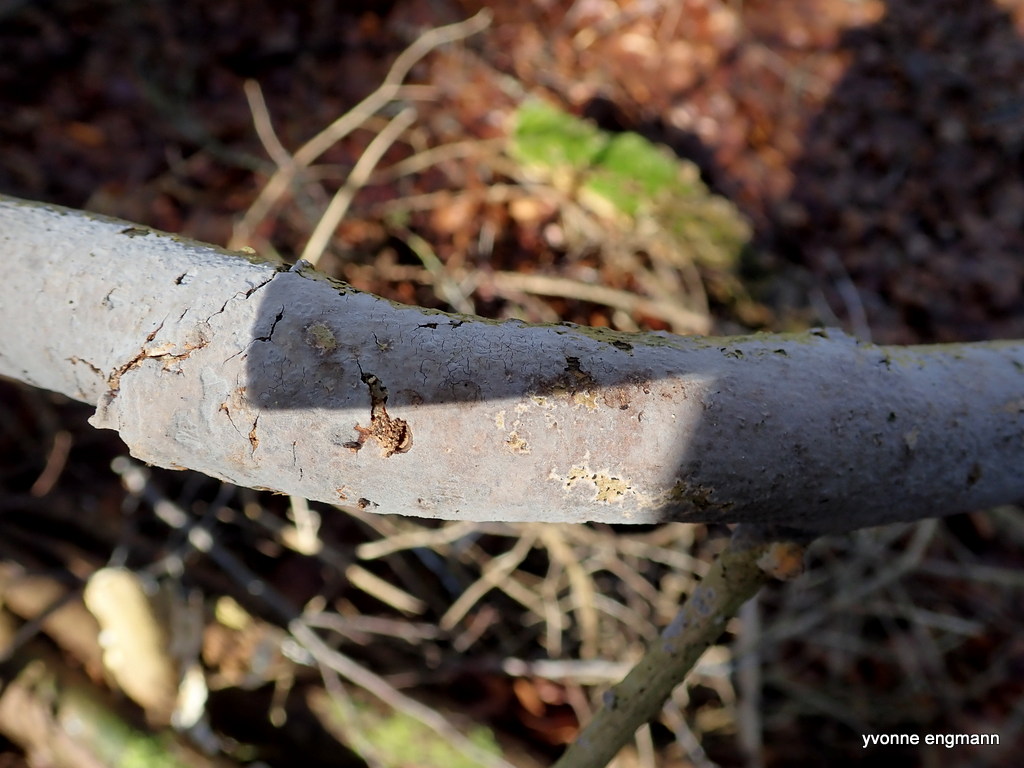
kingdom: Fungi
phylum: Basidiomycota
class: Agaricomycetes
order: Russulales
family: Peniophoraceae
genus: Peniophora
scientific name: Peniophora
